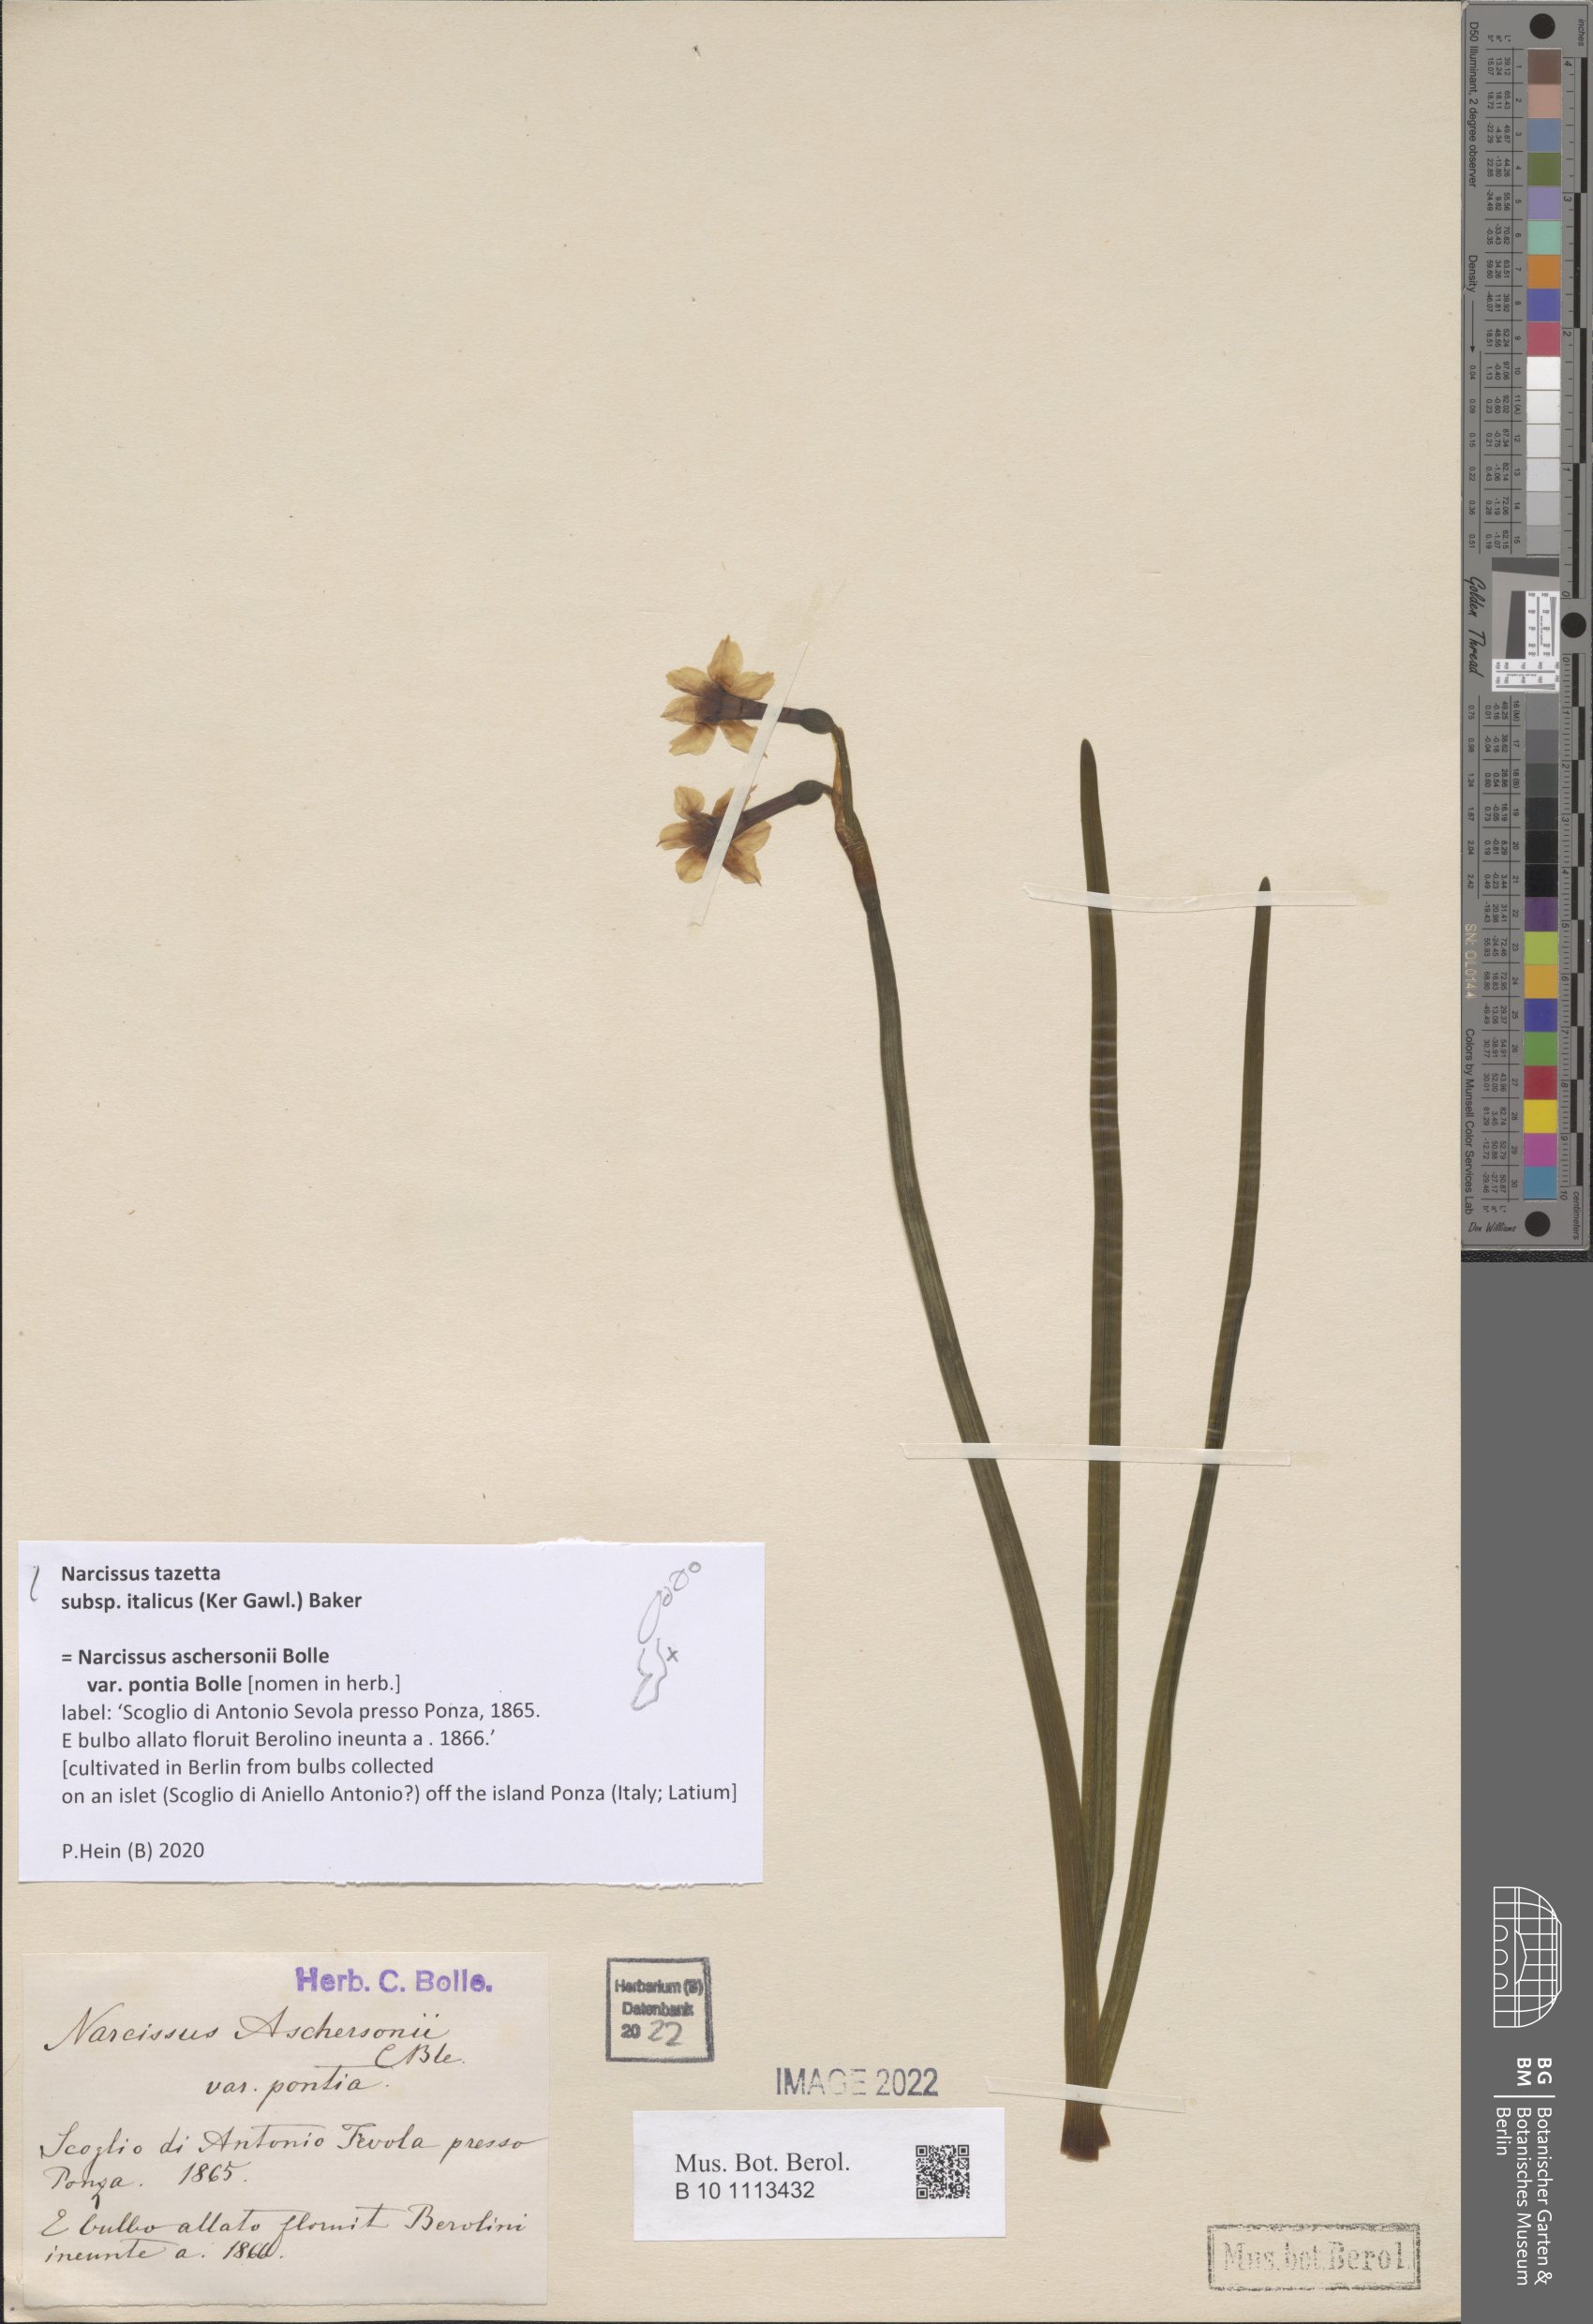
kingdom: Plantae
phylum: Tracheophyta
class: Liliopsida
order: Asparagales
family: Amaryllidaceae
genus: Narcissus
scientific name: Narcissus tazetta
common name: Bunch-flowered daffodil
